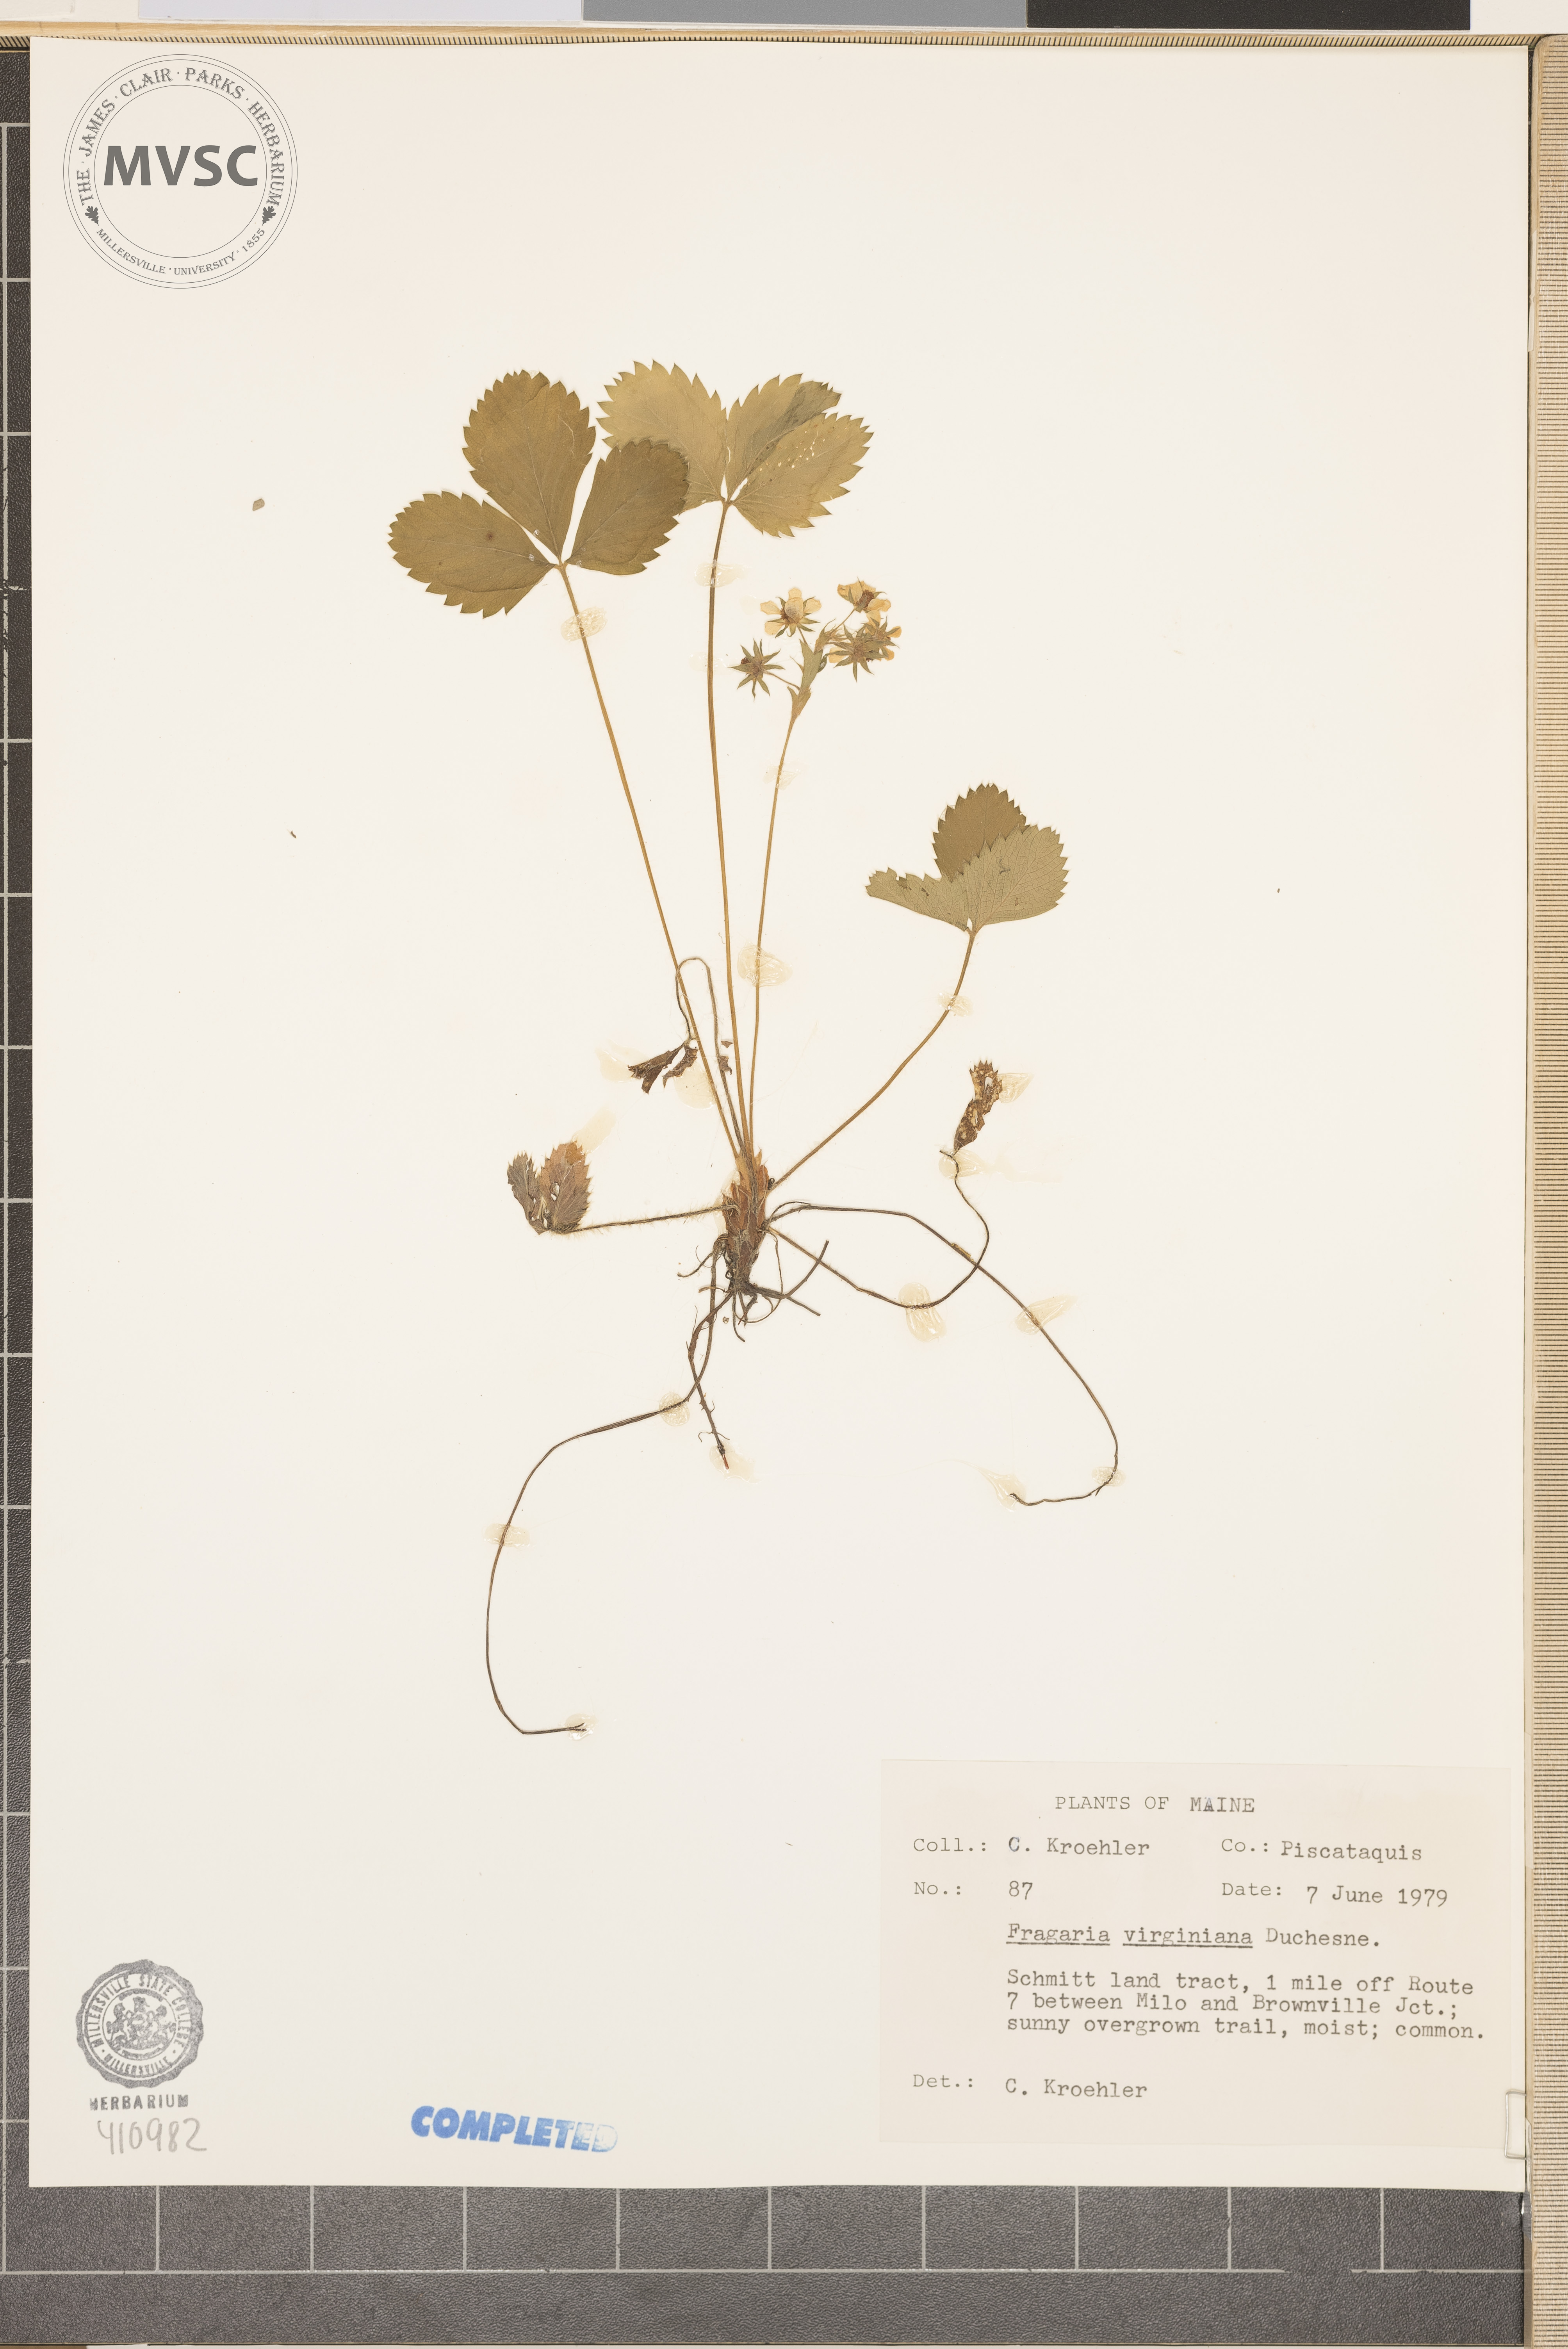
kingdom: Plantae
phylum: Tracheophyta
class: Magnoliopsida
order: Rosales
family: Rosaceae
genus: Fragaria
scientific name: Fragaria virginiana
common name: Thickleaved wild strawberry
